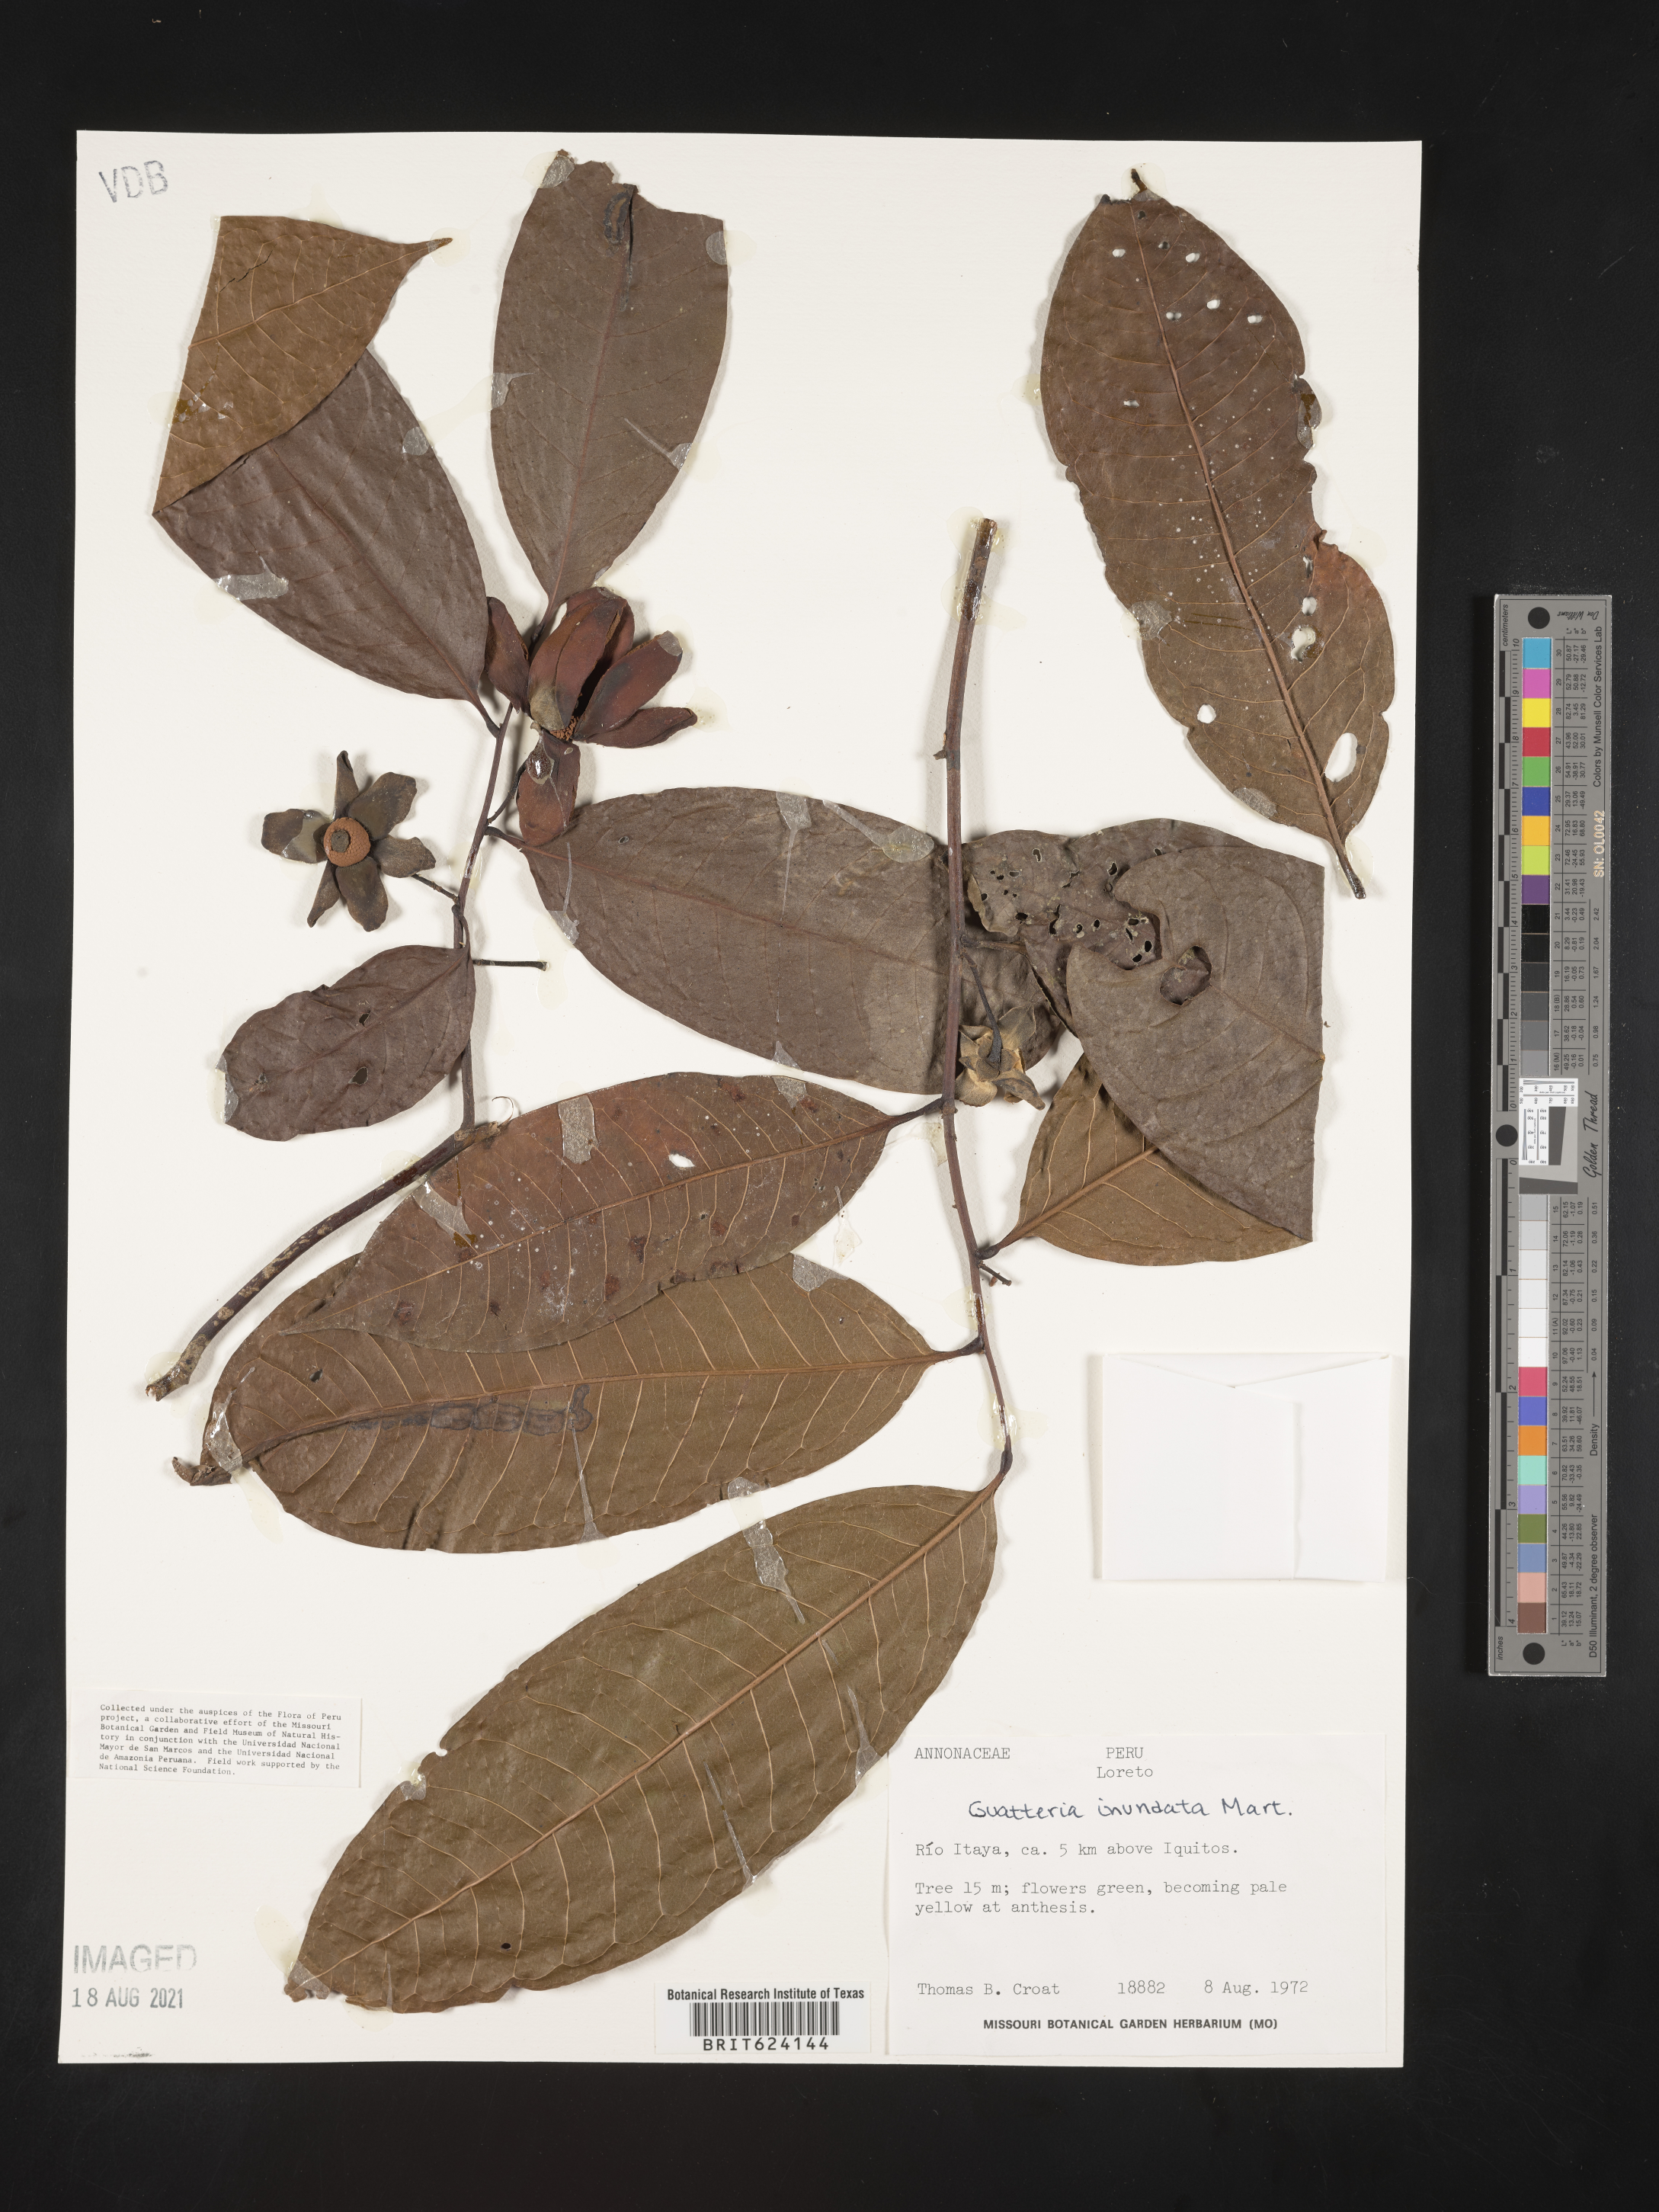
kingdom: Plantae
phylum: Tracheophyta
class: Magnoliopsida
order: Magnoliales
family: Annonaceae
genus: Guatteria
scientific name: Guatteria inundata
